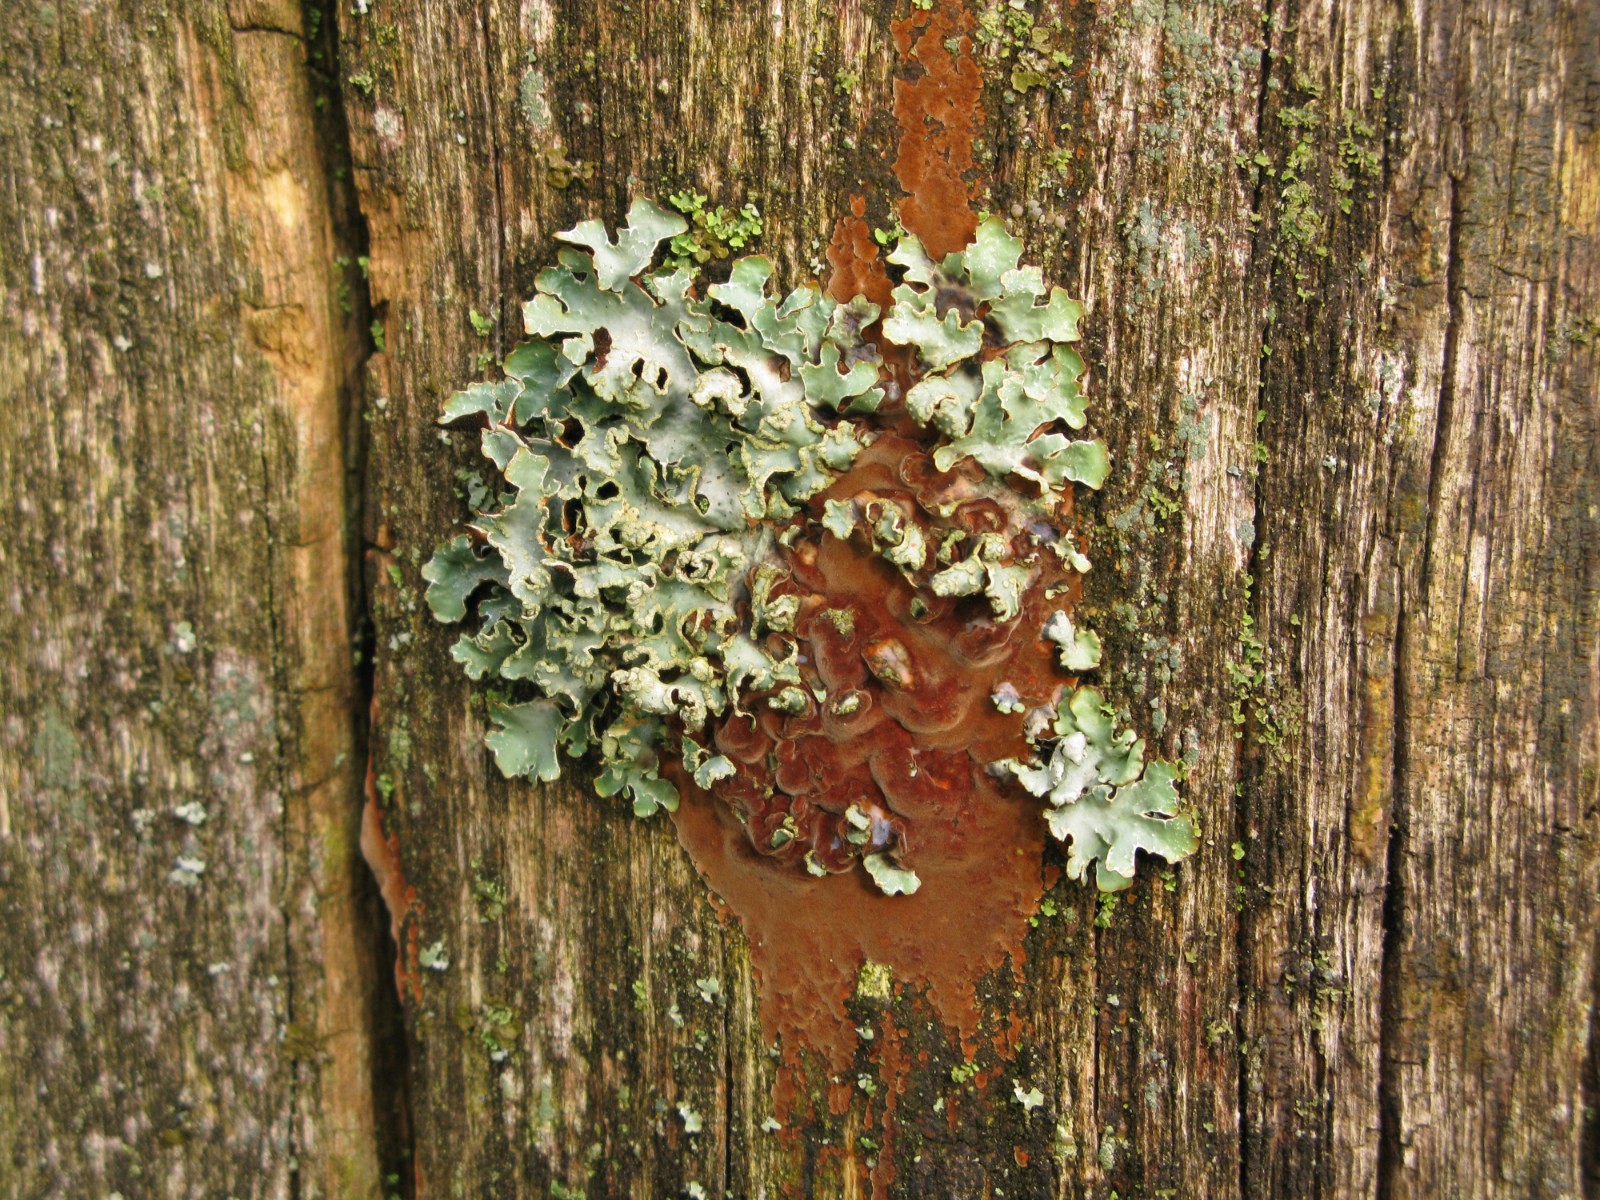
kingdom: Fungi
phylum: Basidiomycota
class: Agaricomycetes
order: Hymenochaetales
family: Hymenochaetaceae
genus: Fuscoporia
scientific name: Fuscoporia
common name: Ildporesvamp
